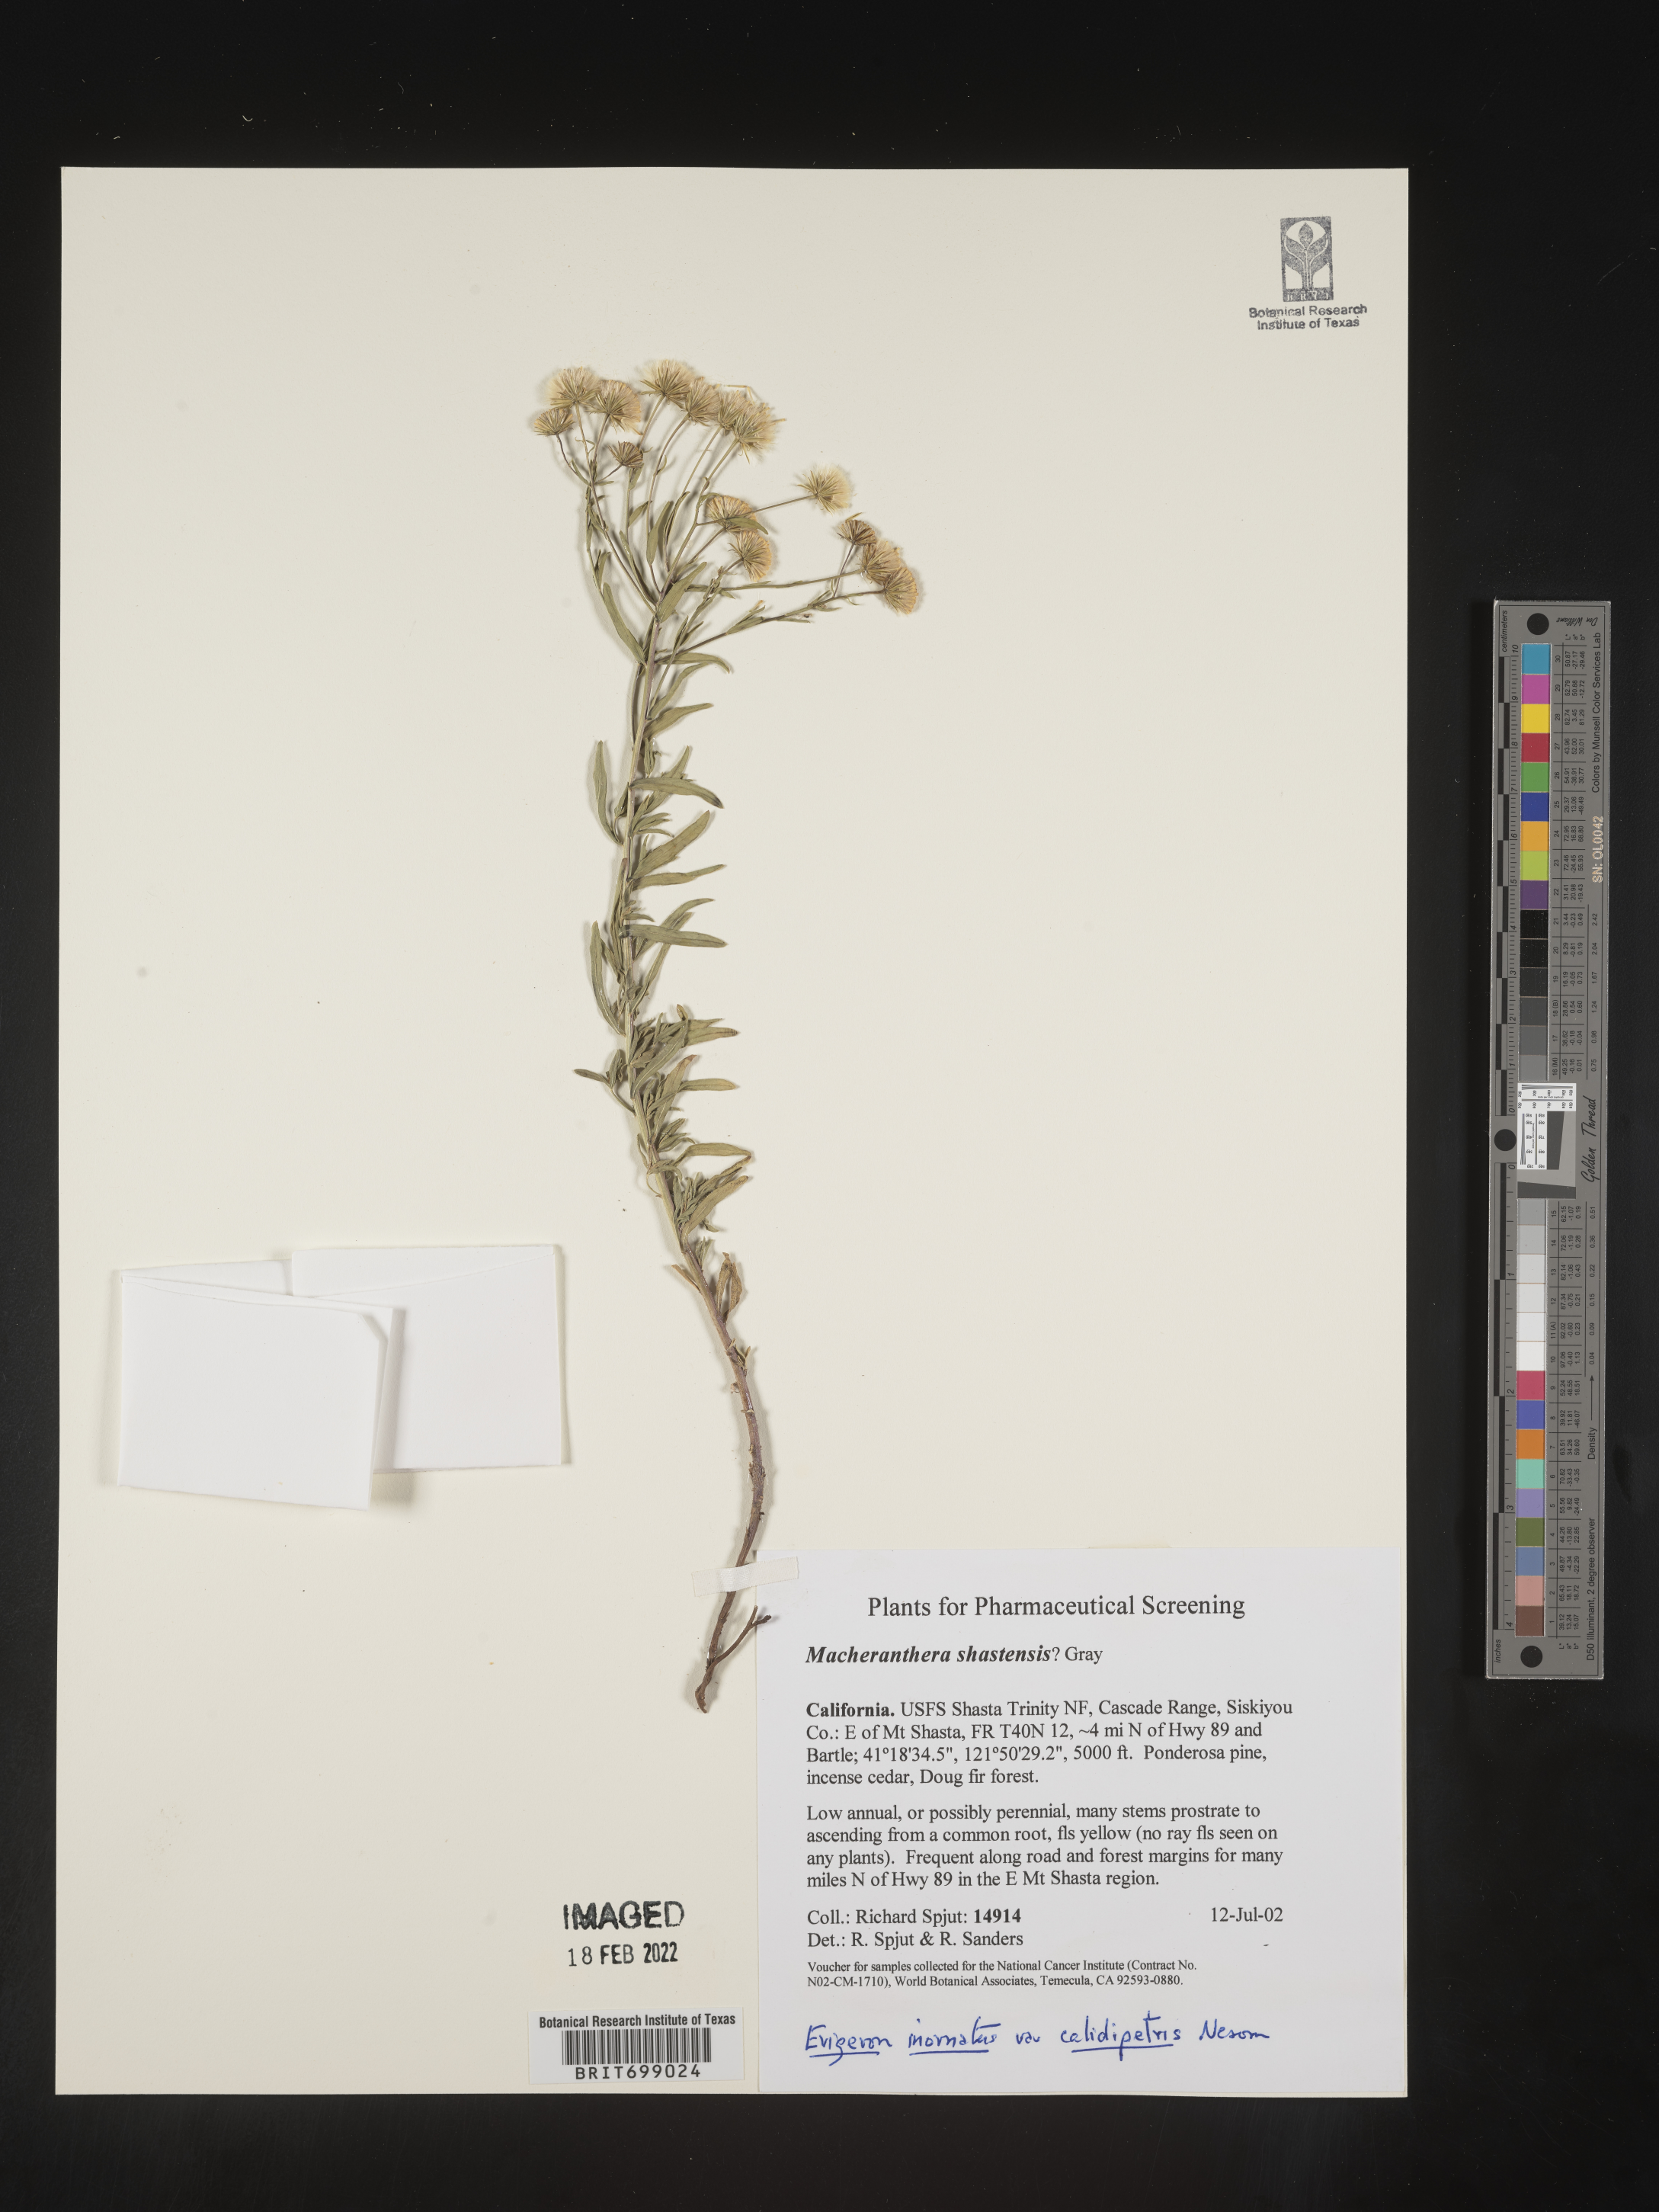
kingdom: Plantae
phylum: Tracheophyta
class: Magnoliopsida
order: Asterales
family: Asteraceae
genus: Erigeron
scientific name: Erigeron inornatus
